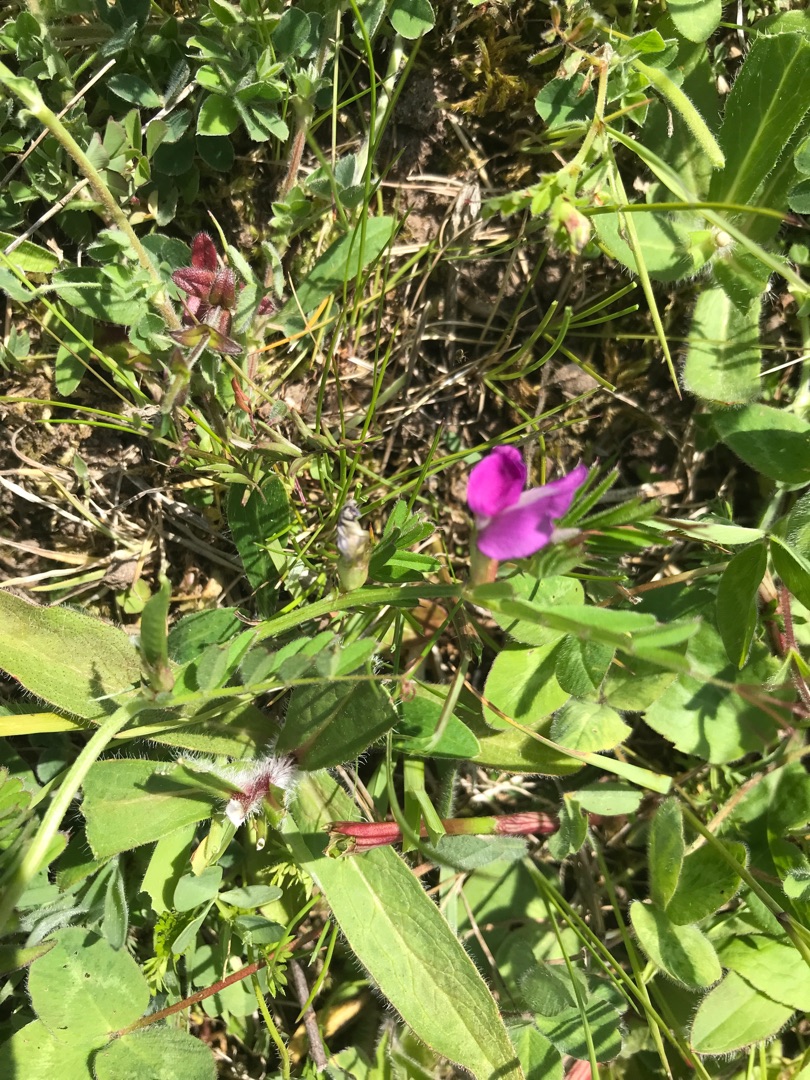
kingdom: Plantae
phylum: Tracheophyta
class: Magnoliopsida
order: Fabales
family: Fabaceae
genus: Vicia
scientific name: Vicia sativa
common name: Smalbladet vikke
